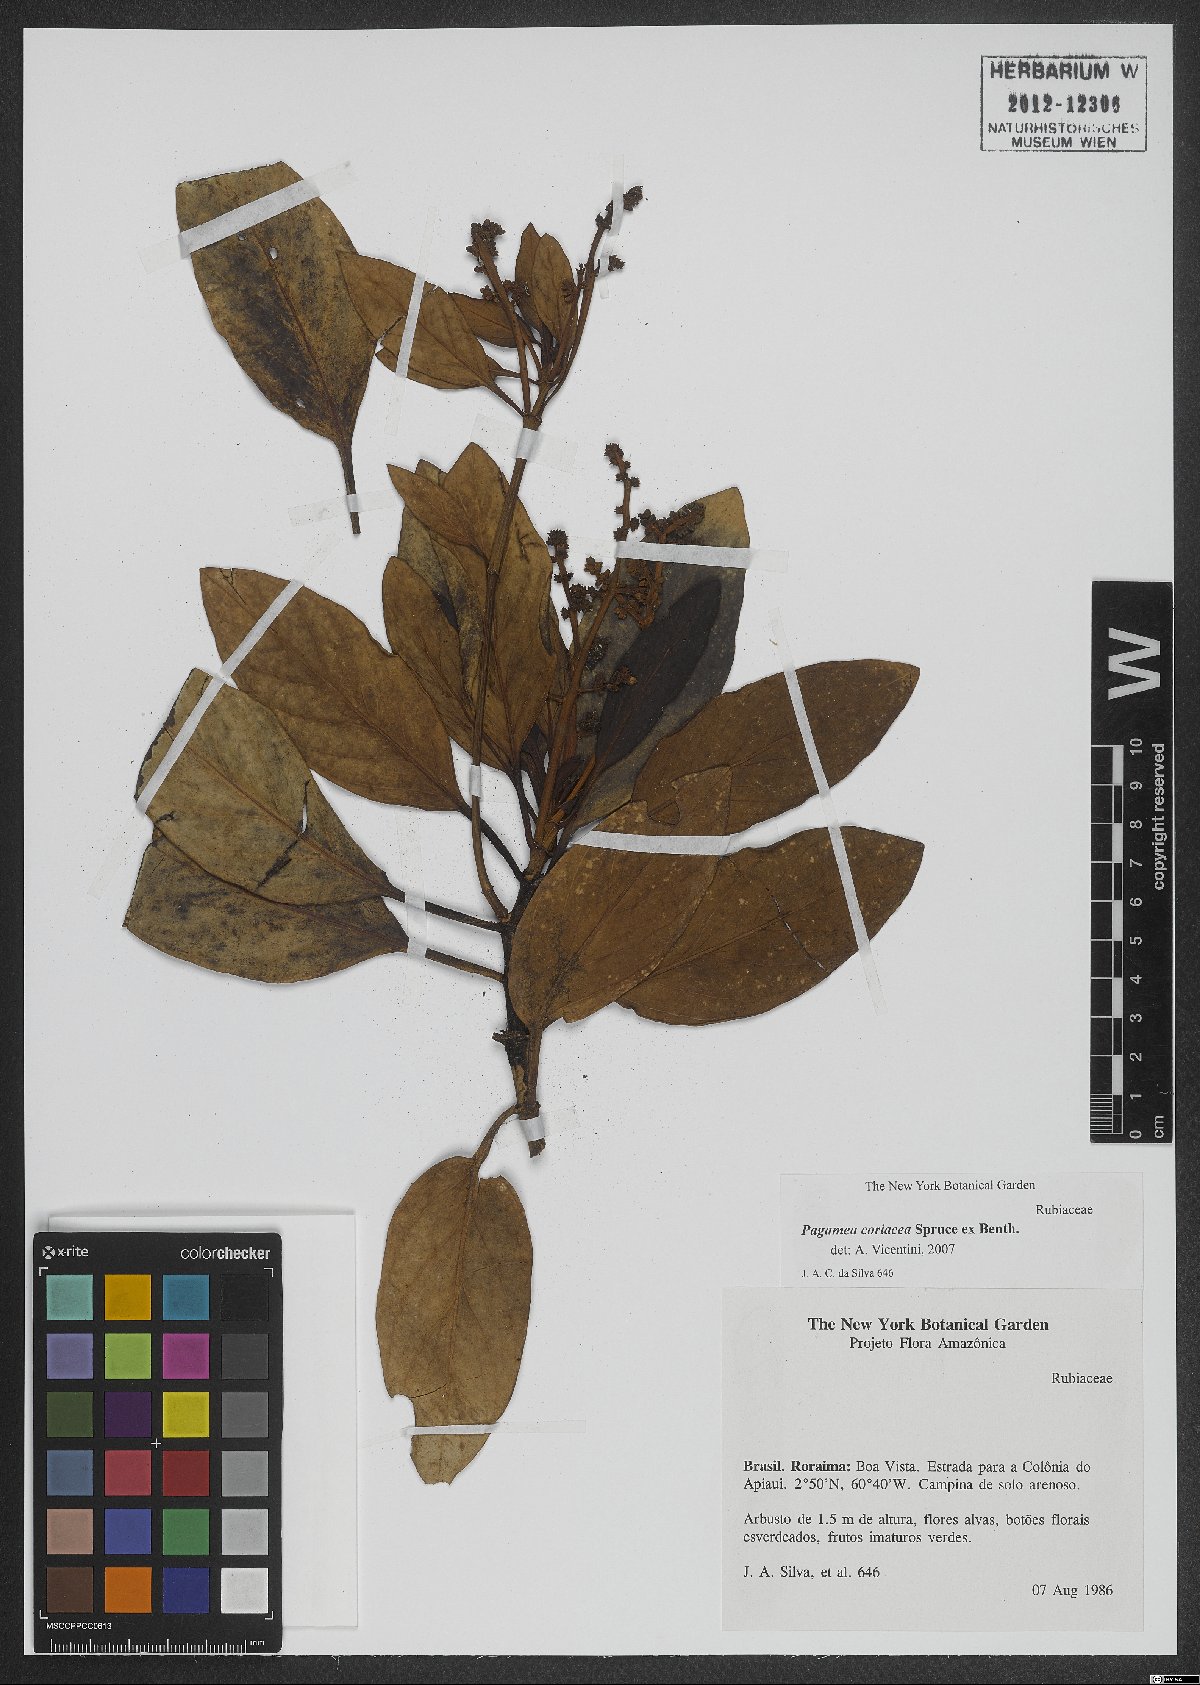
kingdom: Plantae
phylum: Tracheophyta
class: Magnoliopsida
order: Gentianales
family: Rubiaceae
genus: Pagamea
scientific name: Pagamea coriacea
